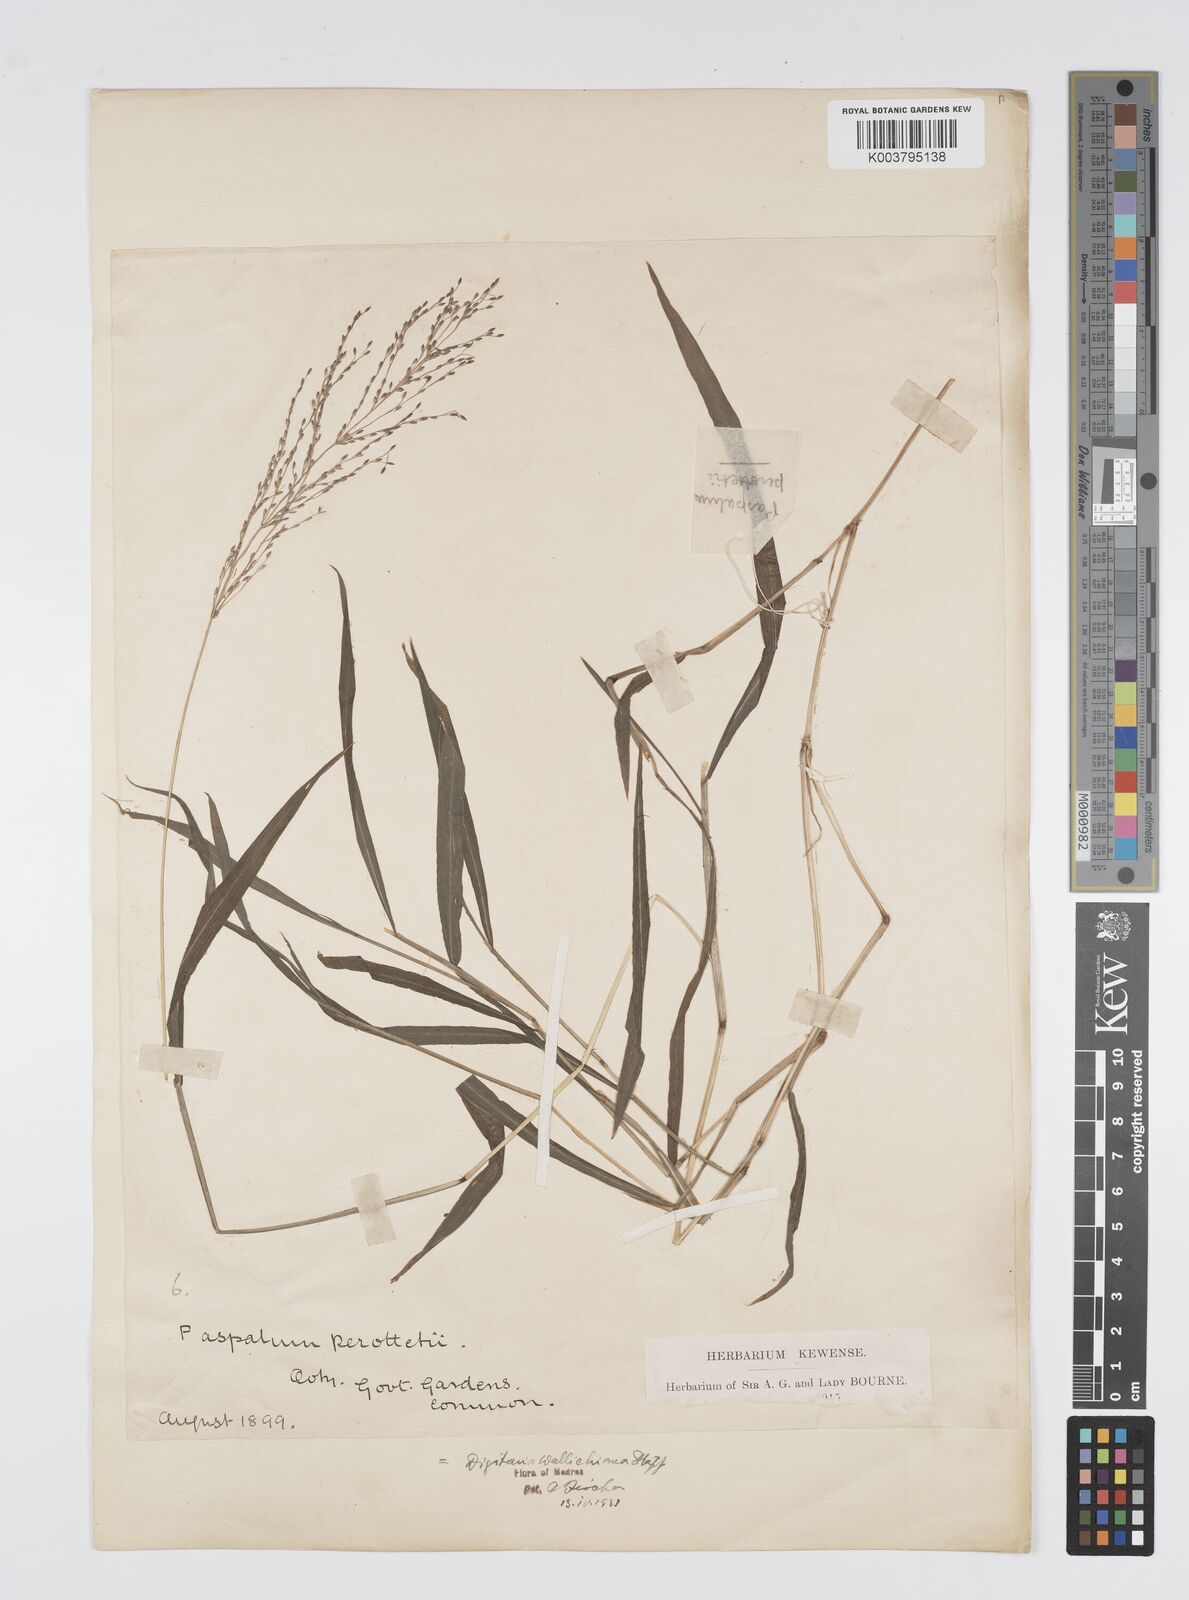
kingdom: Plantae
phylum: Tracheophyta
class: Liliopsida
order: Poales
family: Poaceae
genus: Digitaria
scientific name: Digitaria wallichiana
